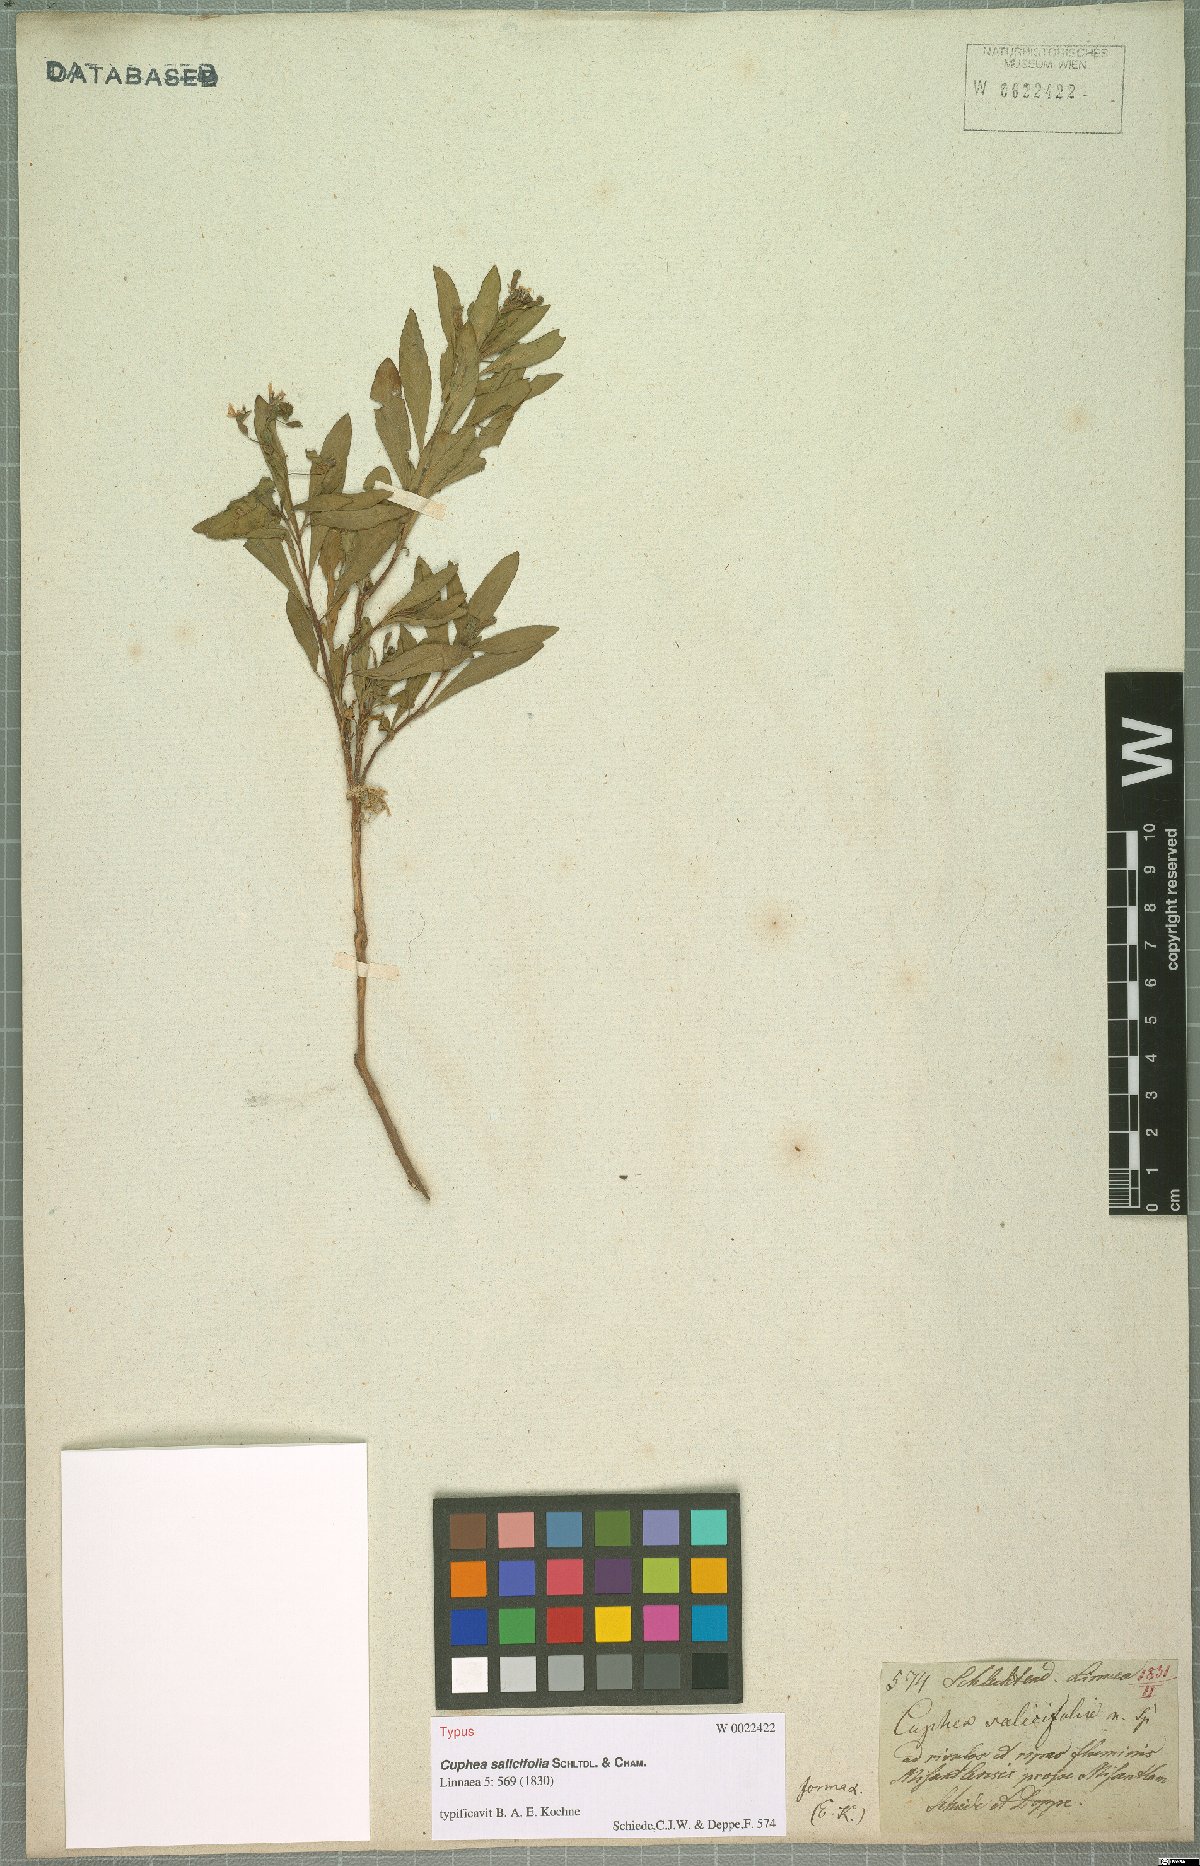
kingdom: Plantae
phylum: Tracheophyta
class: Magnoliopsida
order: Myrtales
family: Lythraceae
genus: Cuphea
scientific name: Cuphea salicifolia
